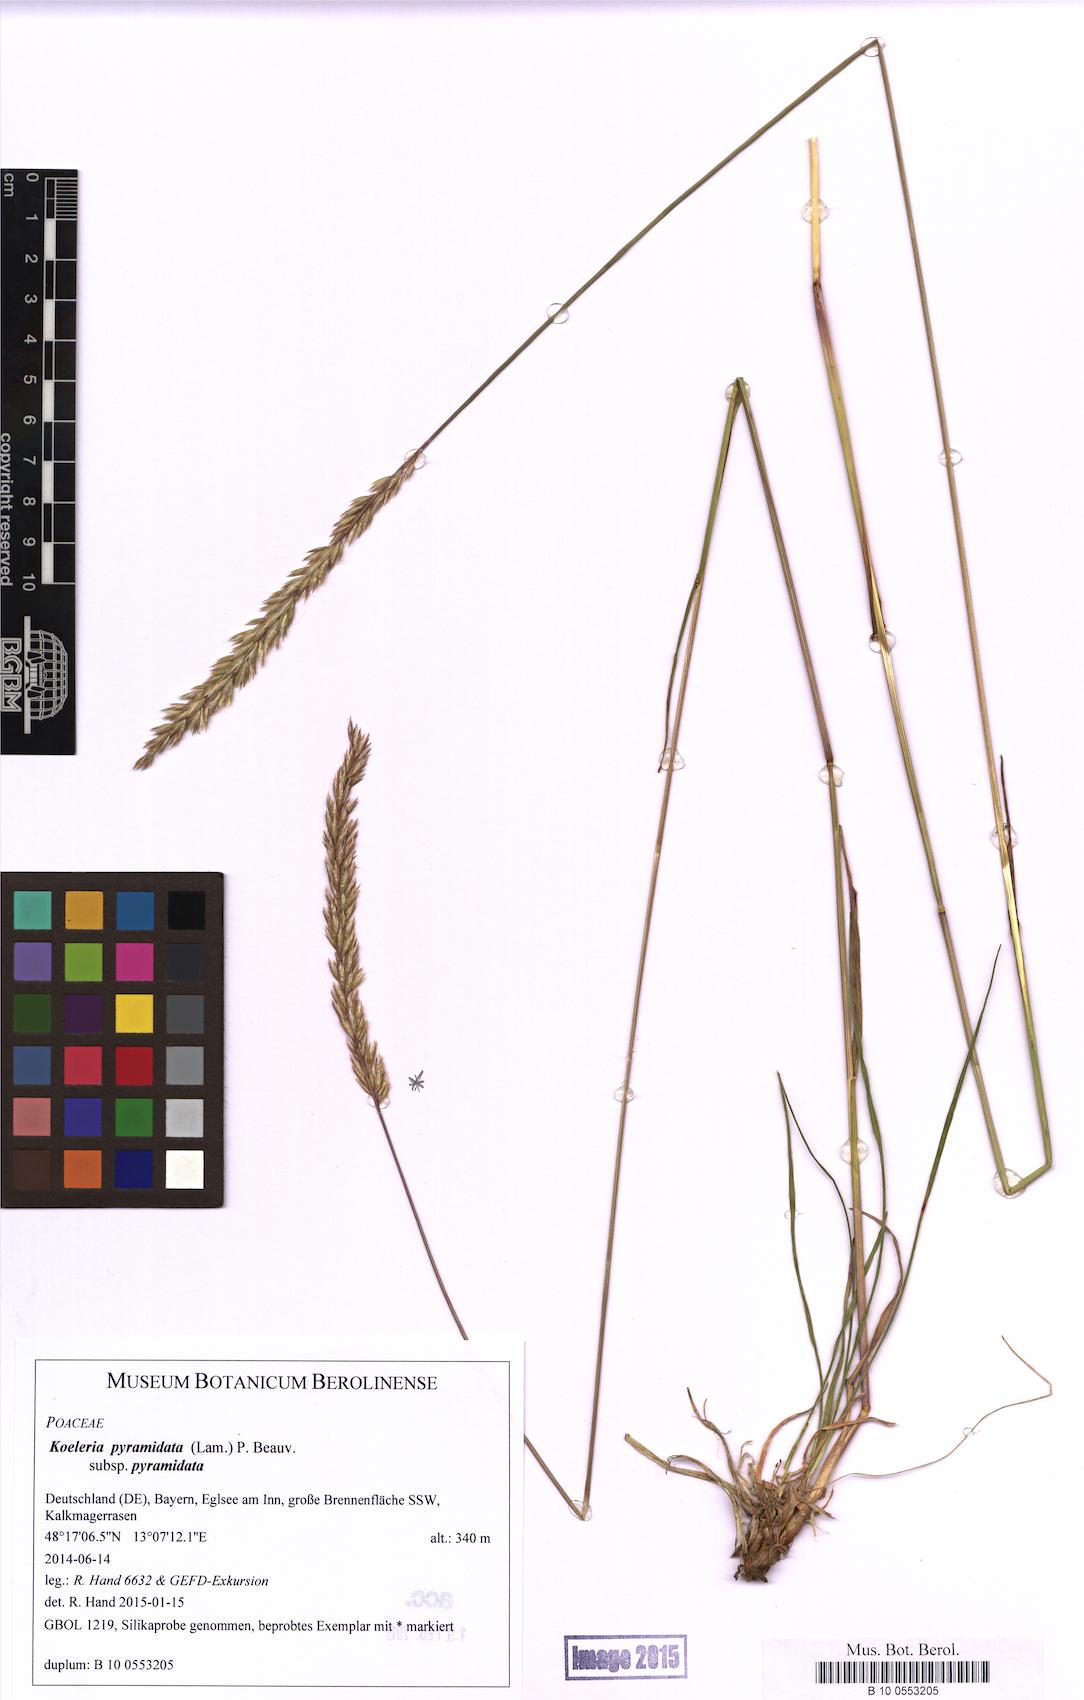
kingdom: Plantae
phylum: Tracheophyta
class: Liliopsida
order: Poales
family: Poaceae
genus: Koeleria
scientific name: Koeleria pyramidata
